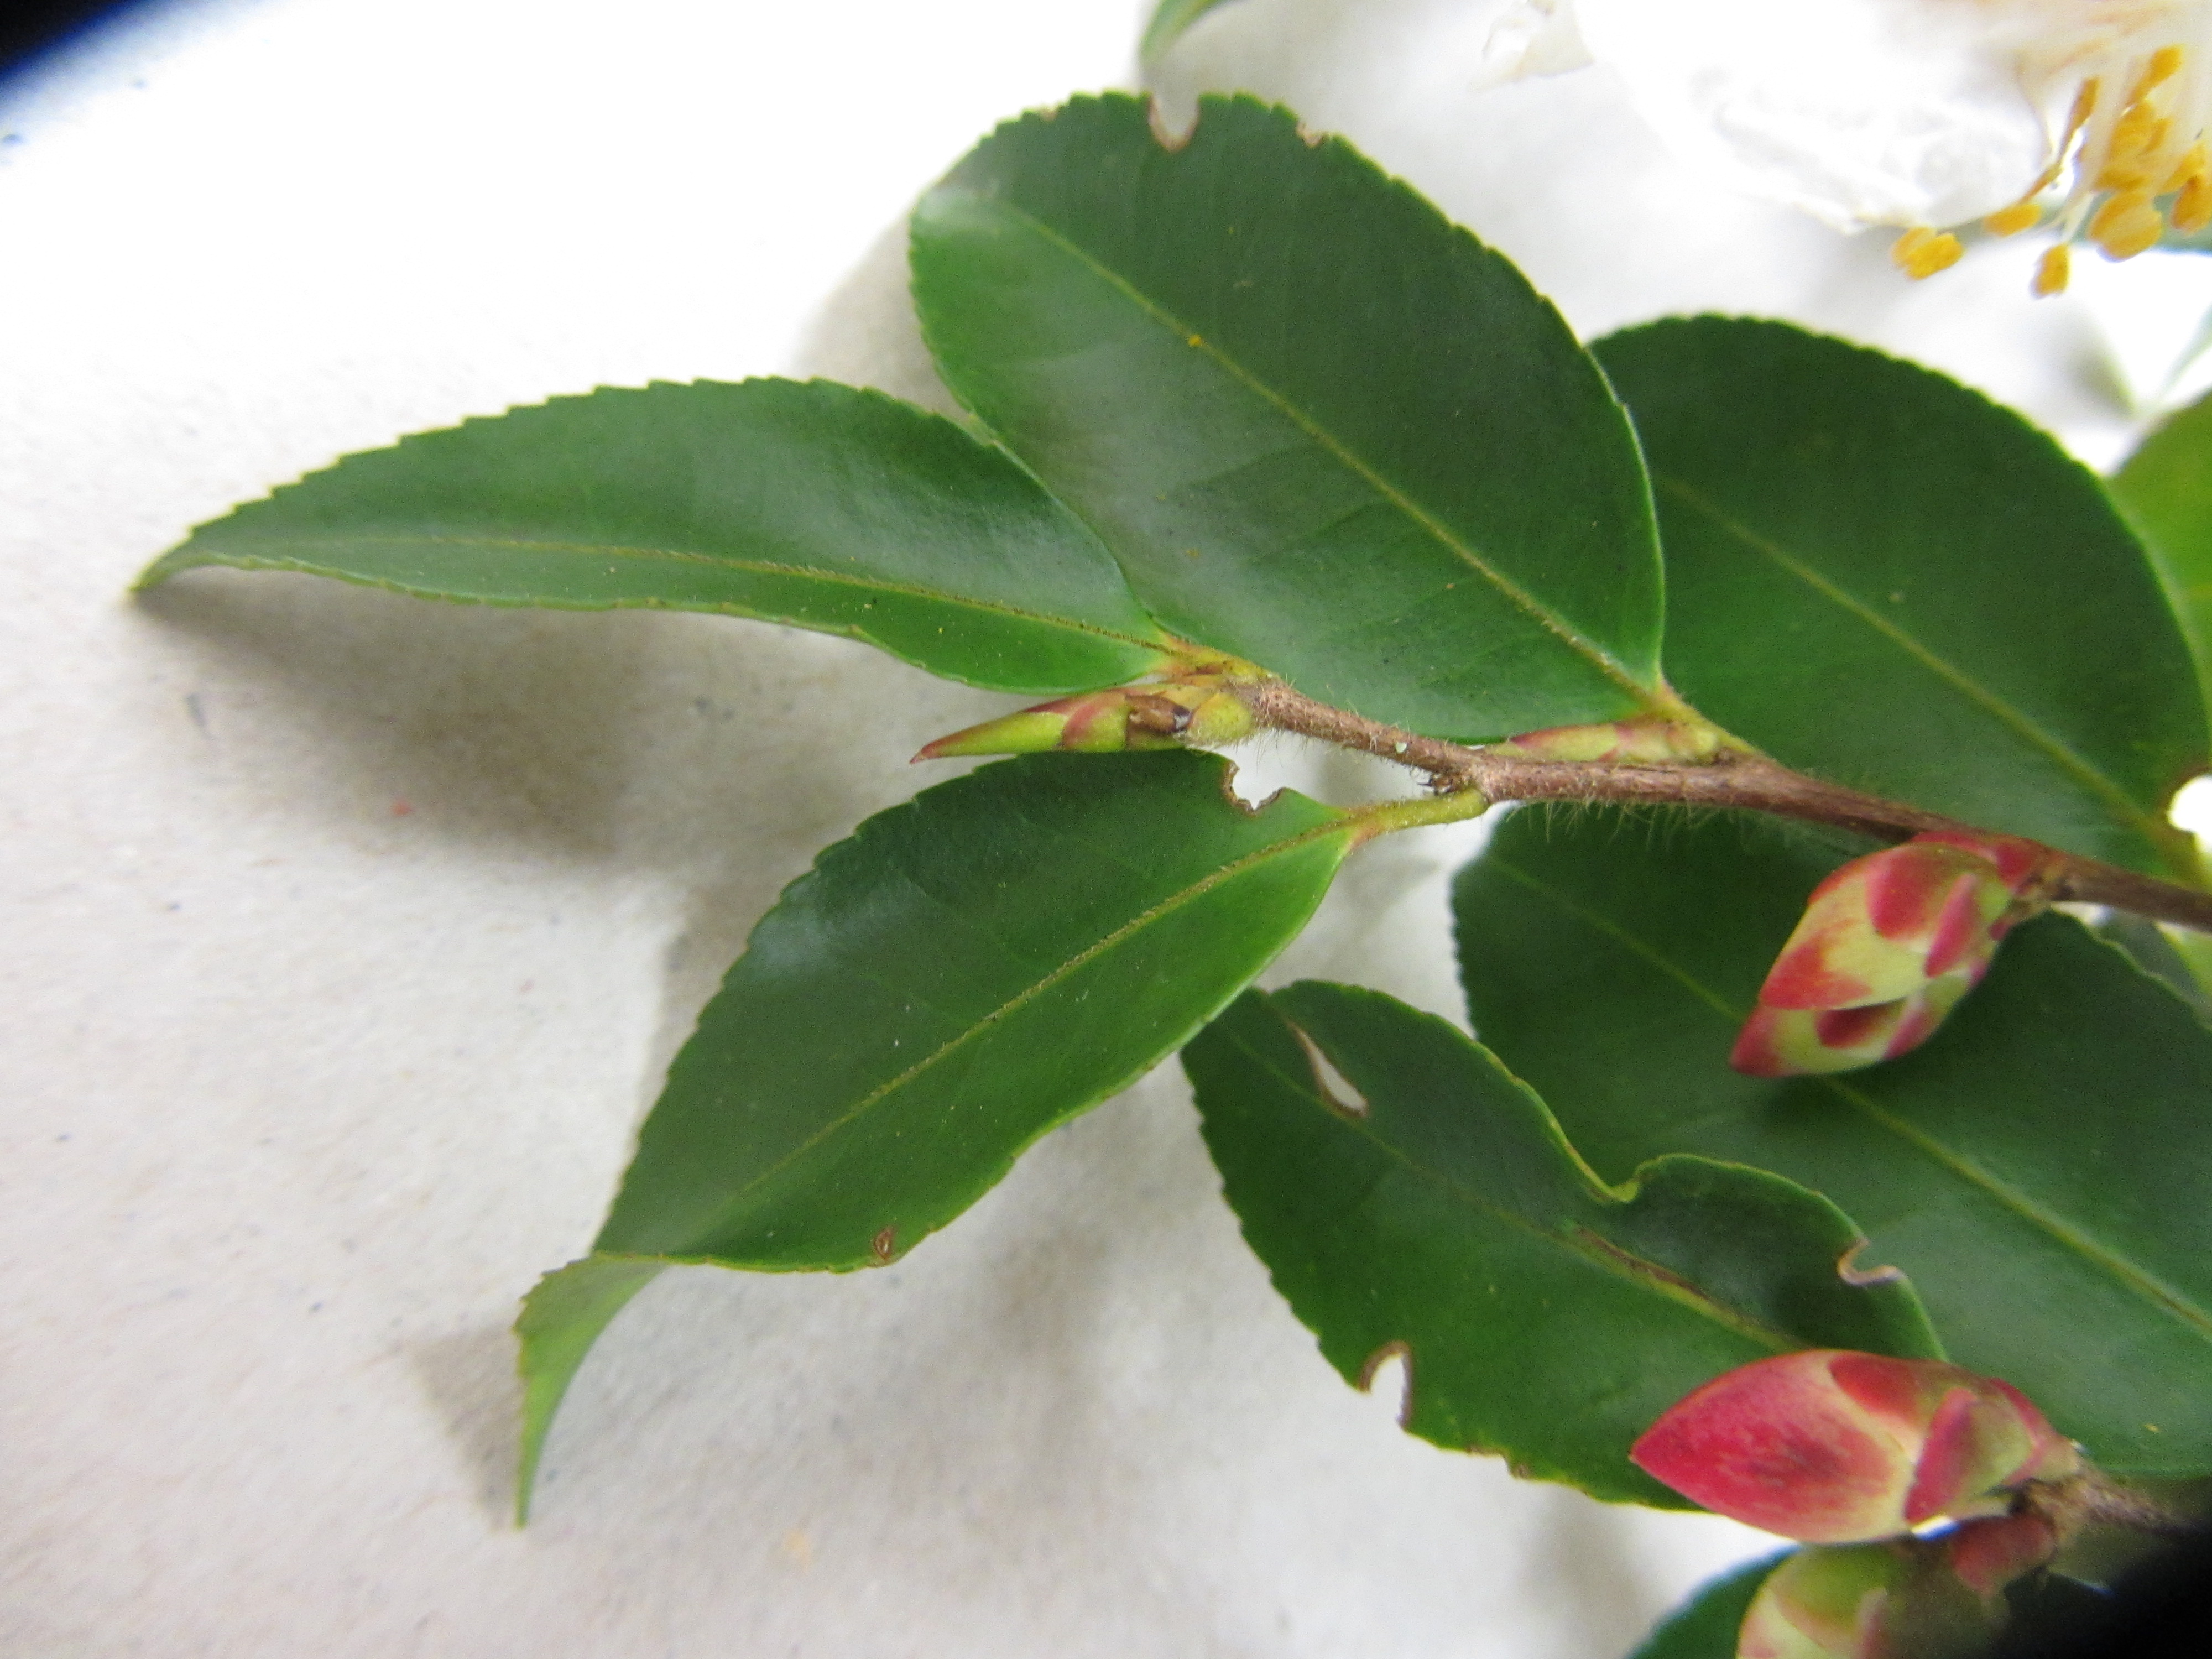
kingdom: Plantae
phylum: Tracheophyta
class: Magnoliopsida
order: Ericales
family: Theaceae
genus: Camellia
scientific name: Camellia lutchuensis
